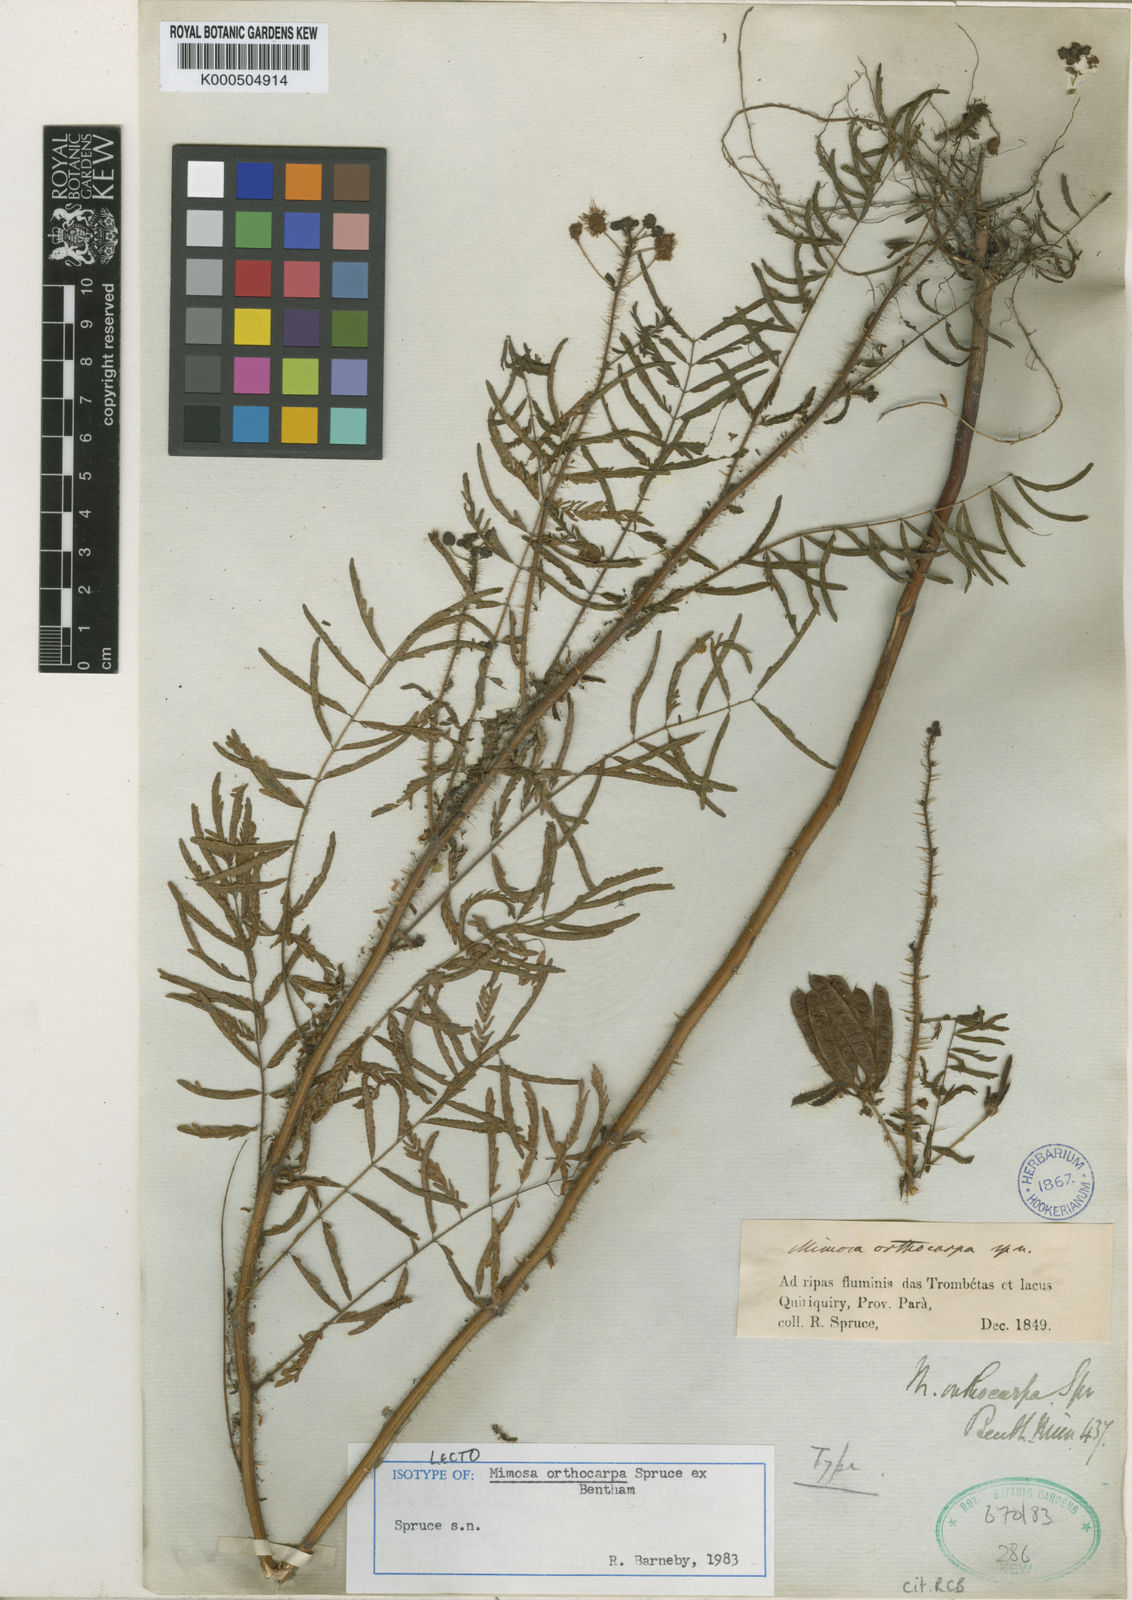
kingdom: Plantae
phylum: Tracheophyta
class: Magnoliopsida
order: Fabales
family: Fabaceae
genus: Mimosa
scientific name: Mimosa orthocarpa
